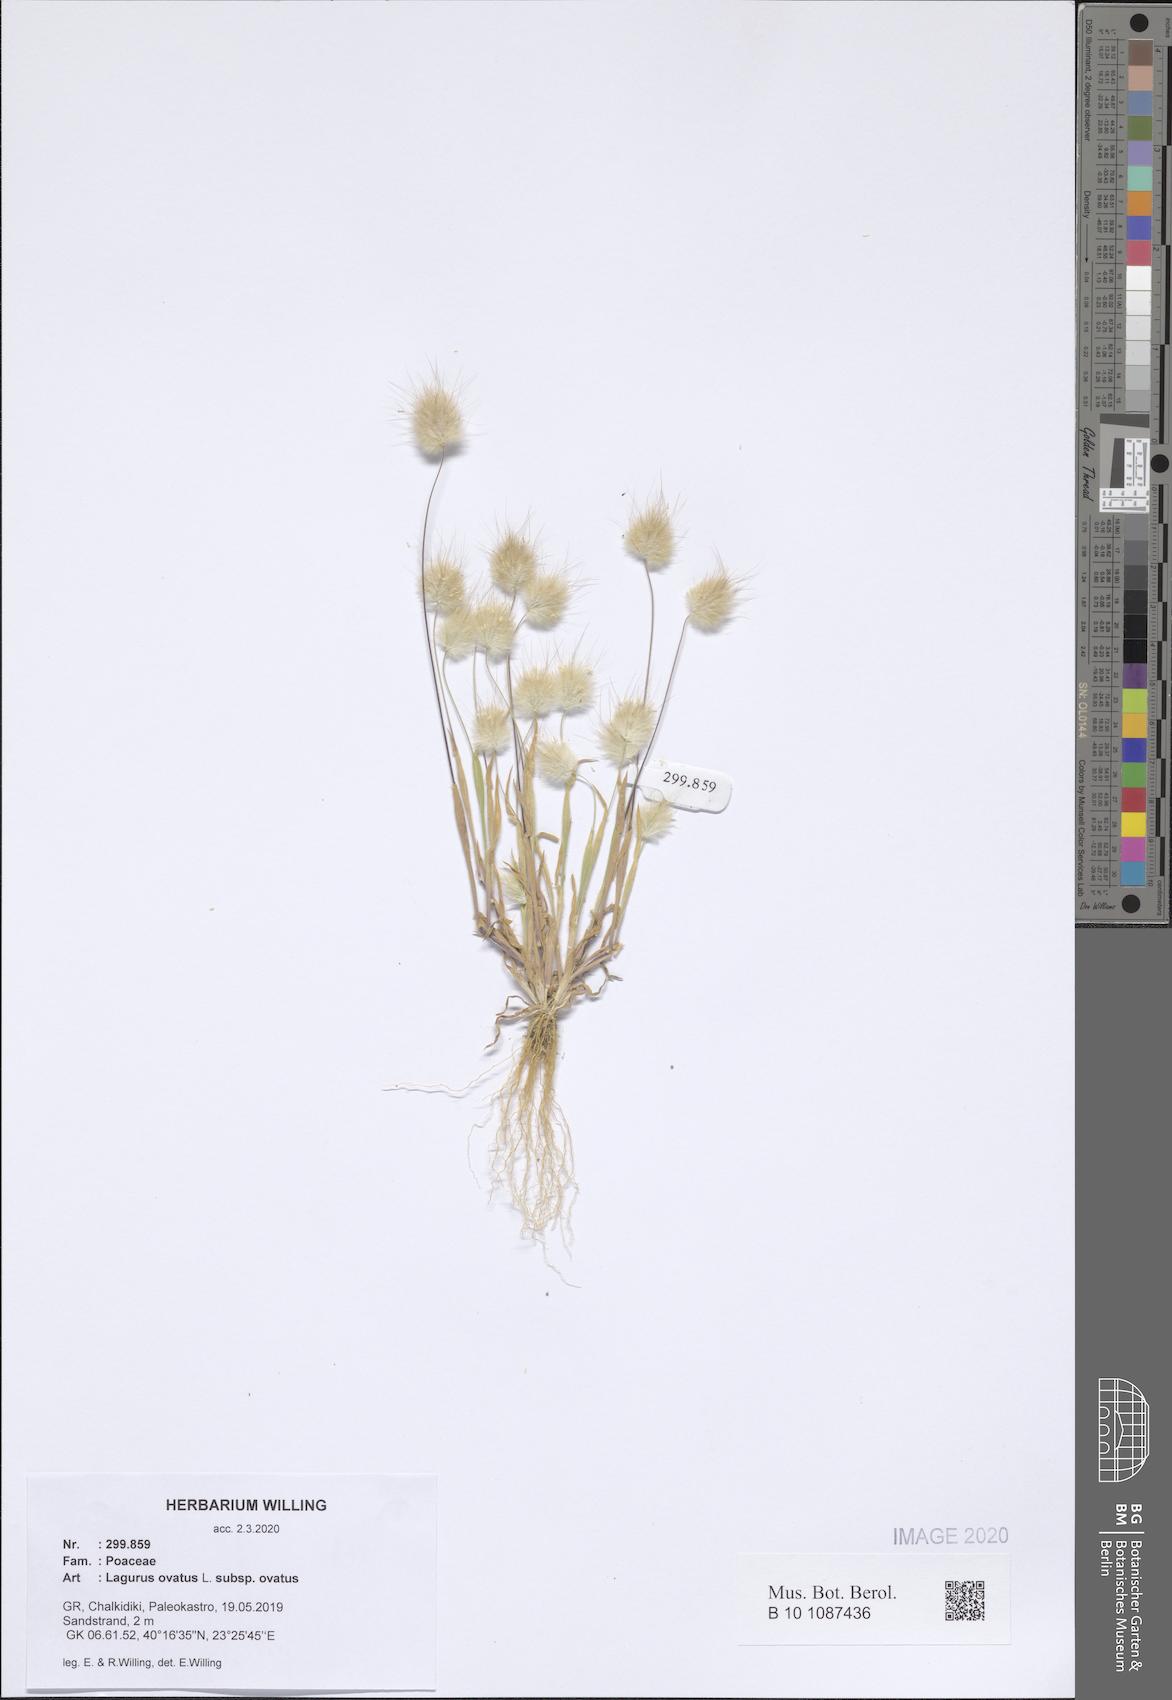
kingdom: Plantae
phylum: Tracheophyta
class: Liliopsida
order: Poales
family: Poaceae
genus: Lagurus
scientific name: Lagurus ovatus
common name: Hare's-tail
